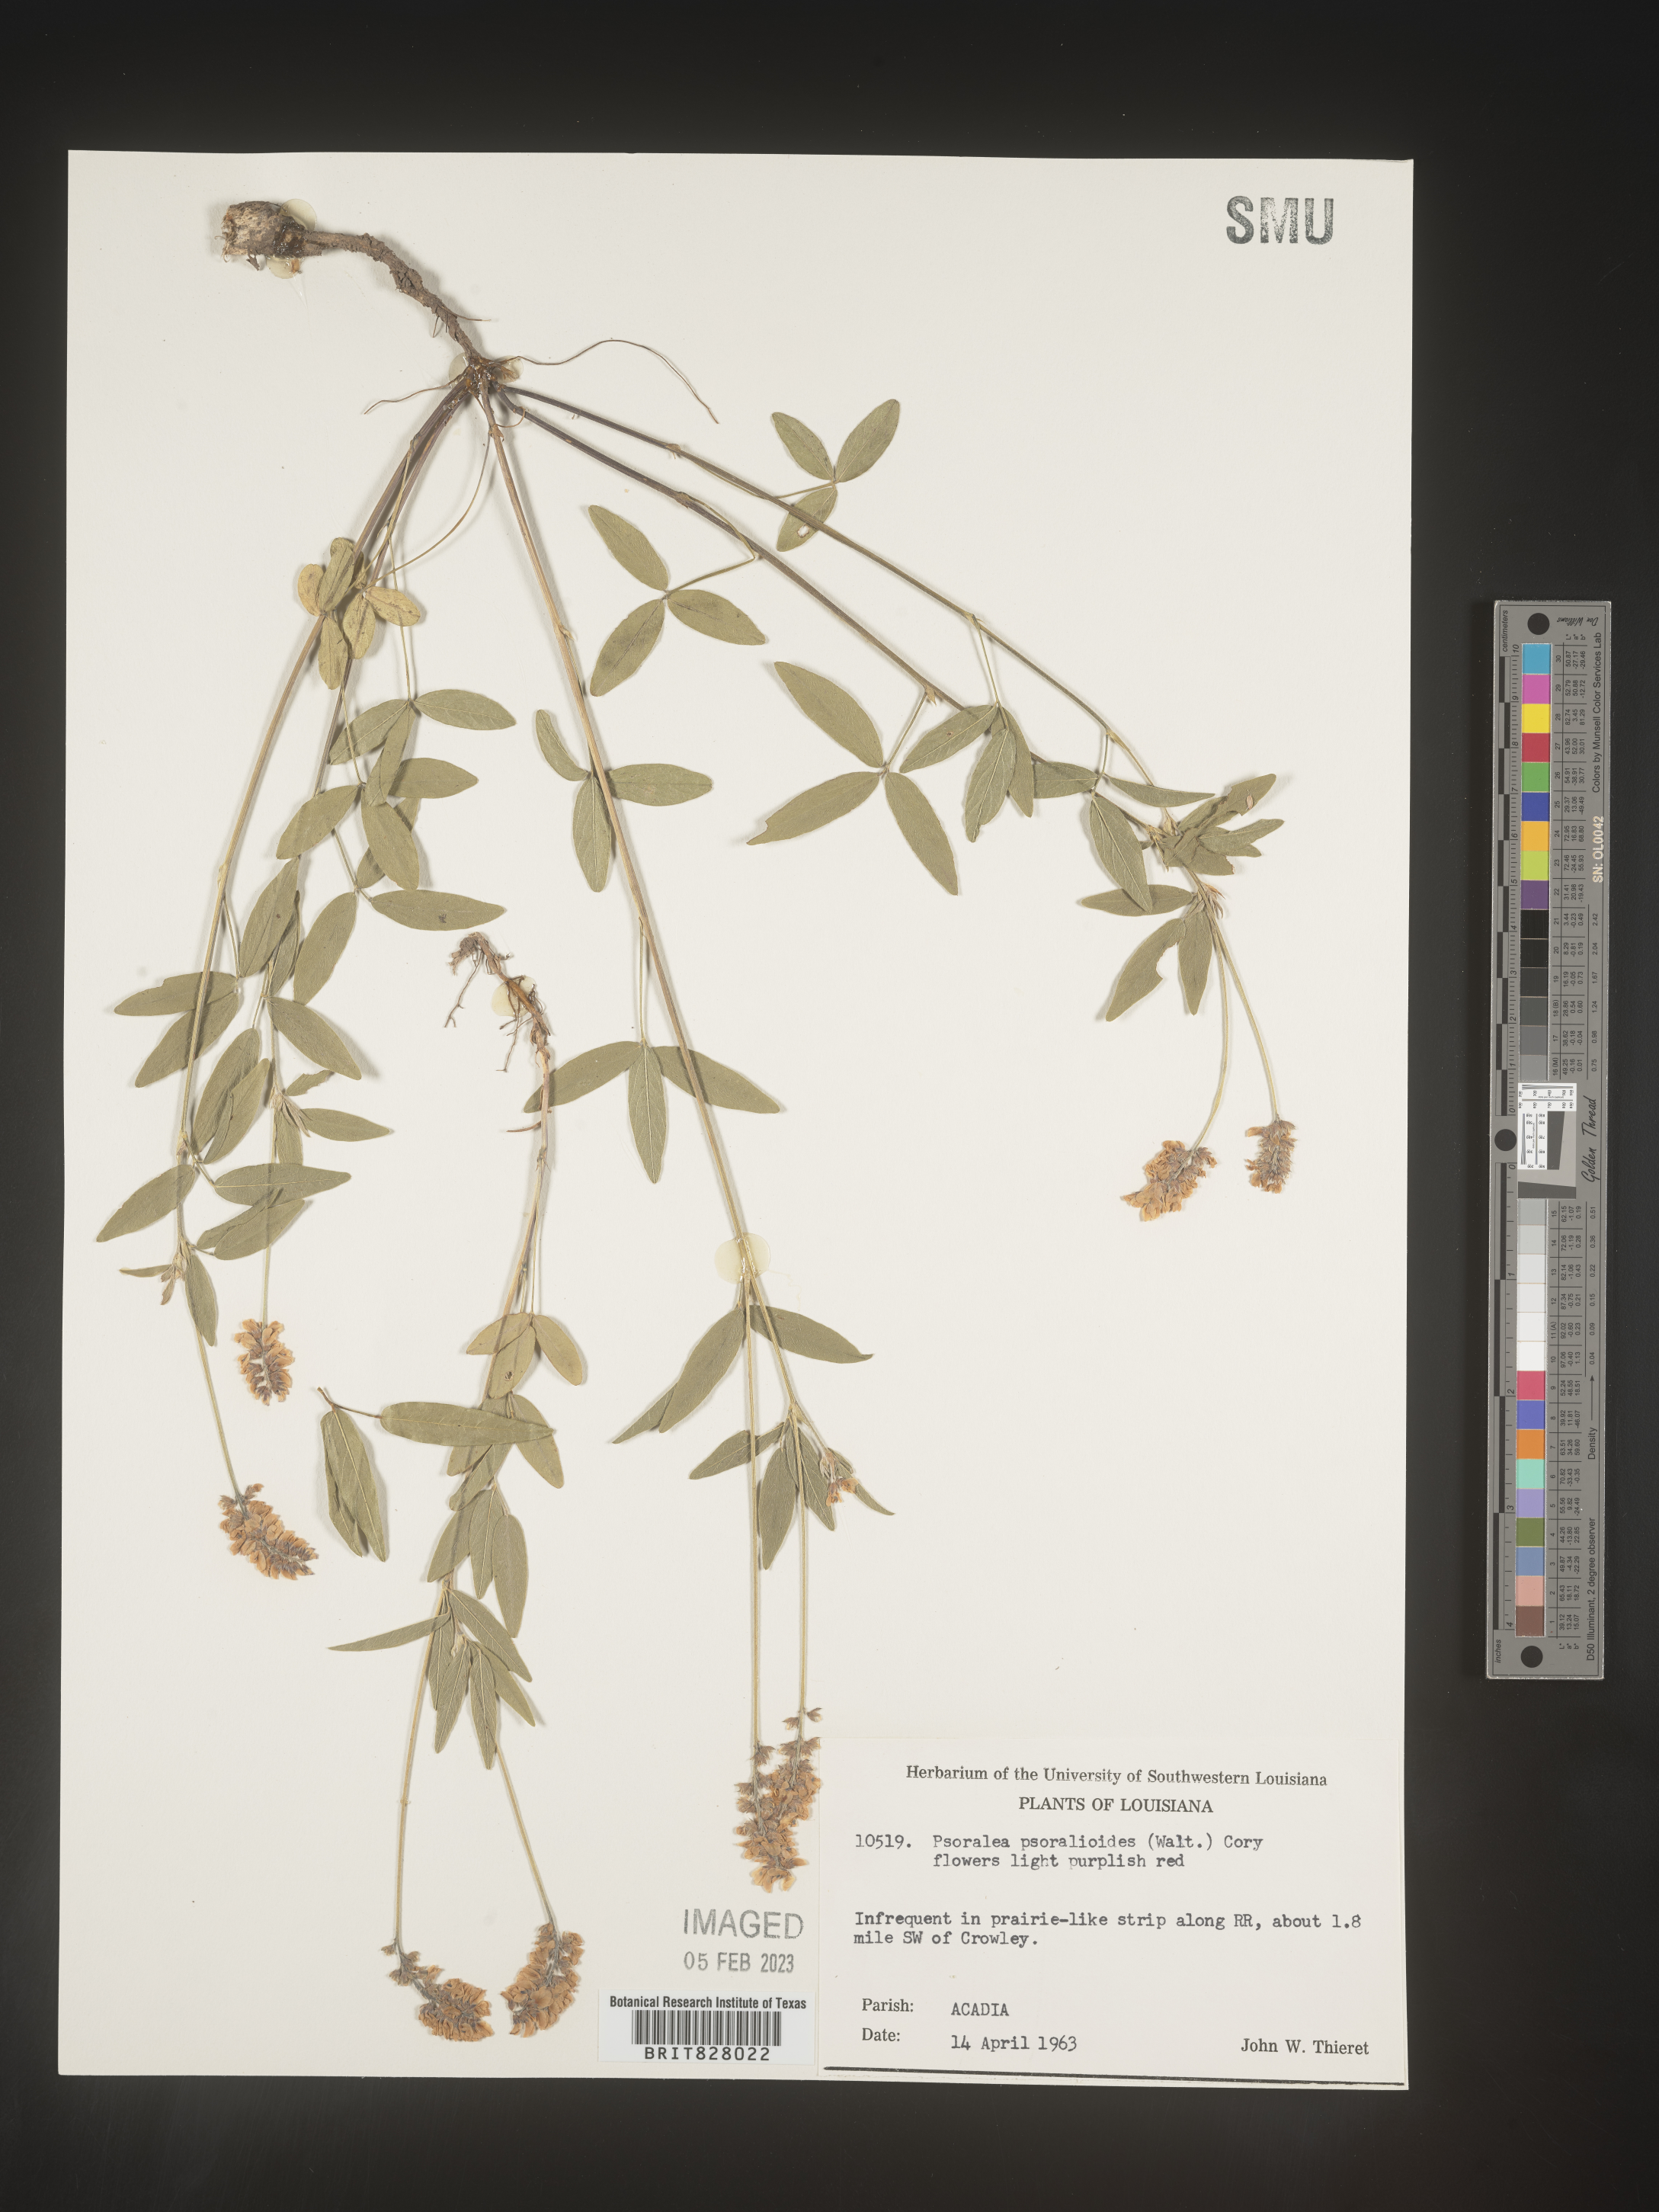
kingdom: Plantae
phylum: Tracheophyta
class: Magnoliopsida
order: Fabales
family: Fabaceae
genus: Orbexilum
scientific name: Orbexilum pedunculatum
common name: Sampson's snakeroot
